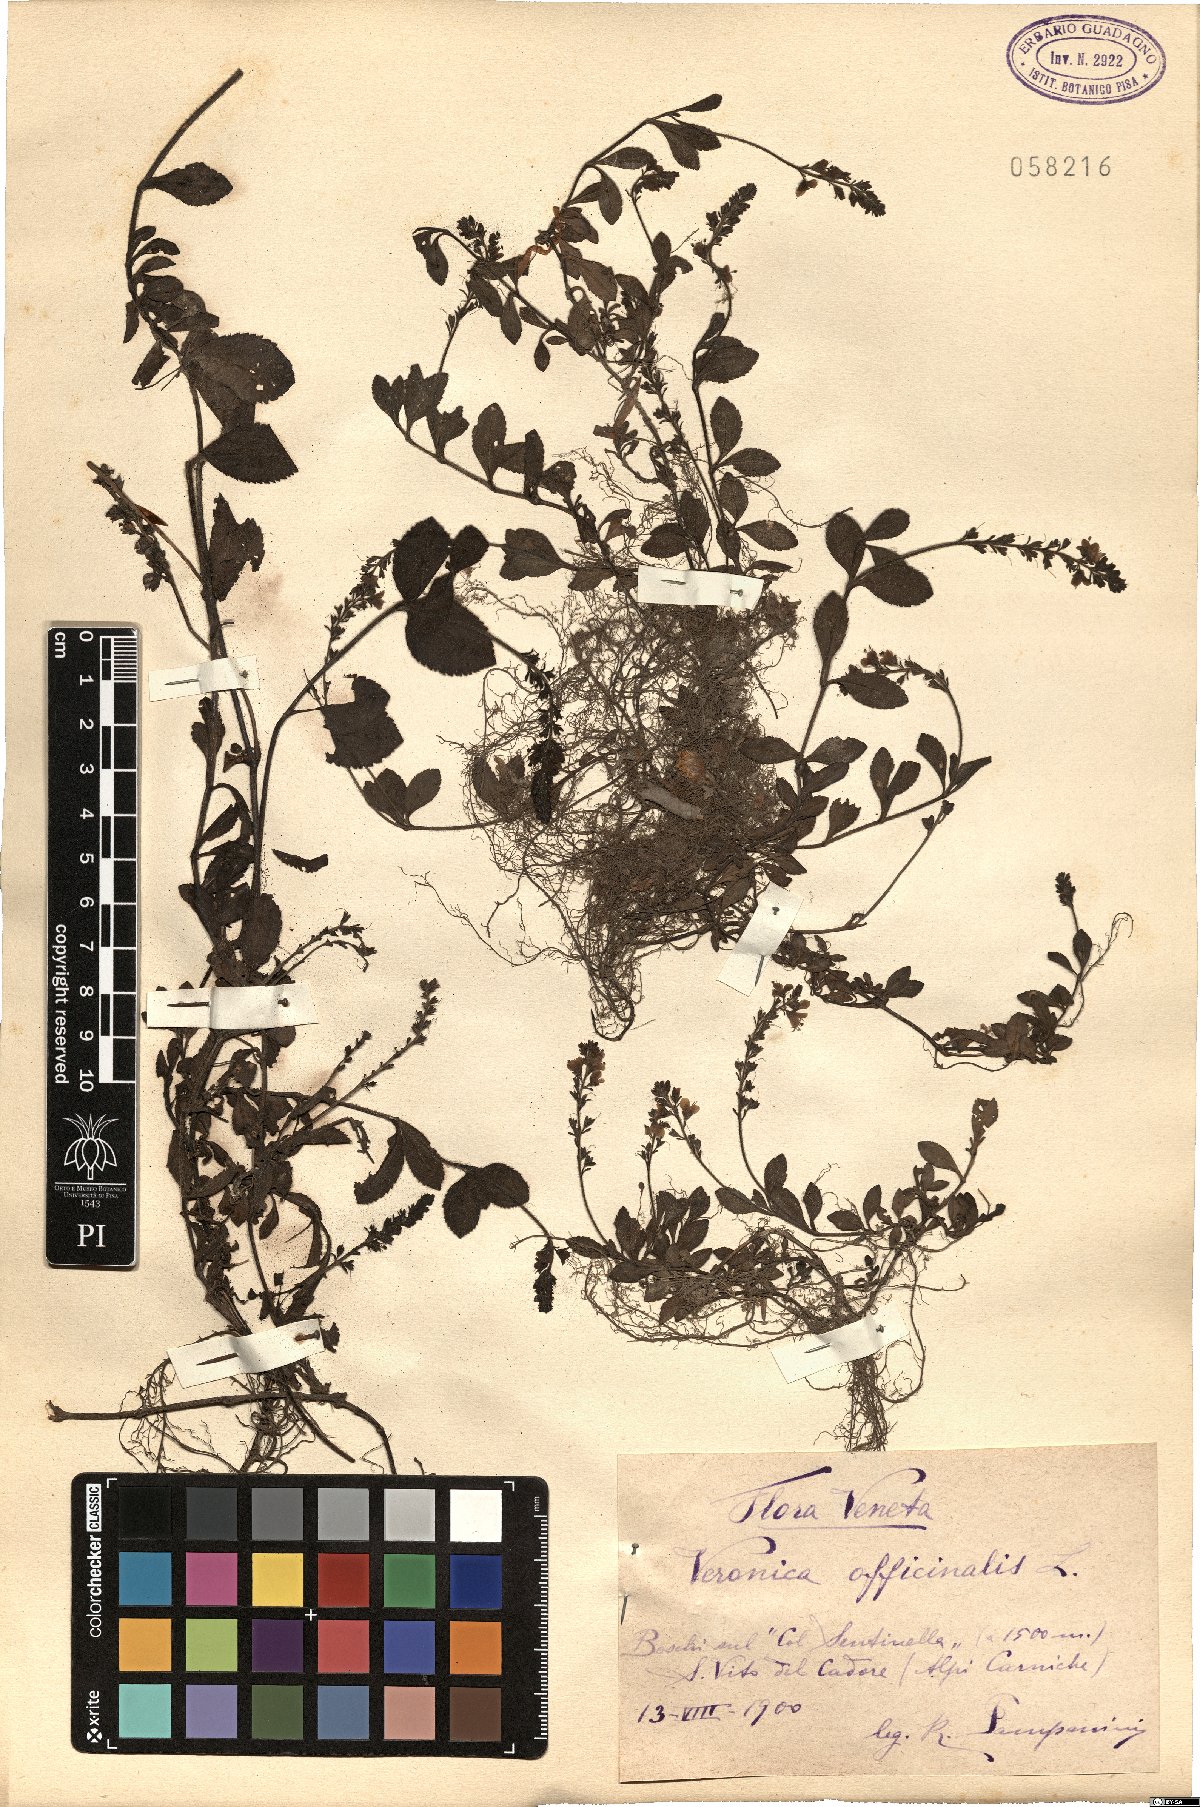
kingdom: Plantae
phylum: Tracheophyta
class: Magnoliopsida
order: Lamiales
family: Plantaginaceae
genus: Veronica
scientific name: Veronica officinalis
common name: Common speedwell
